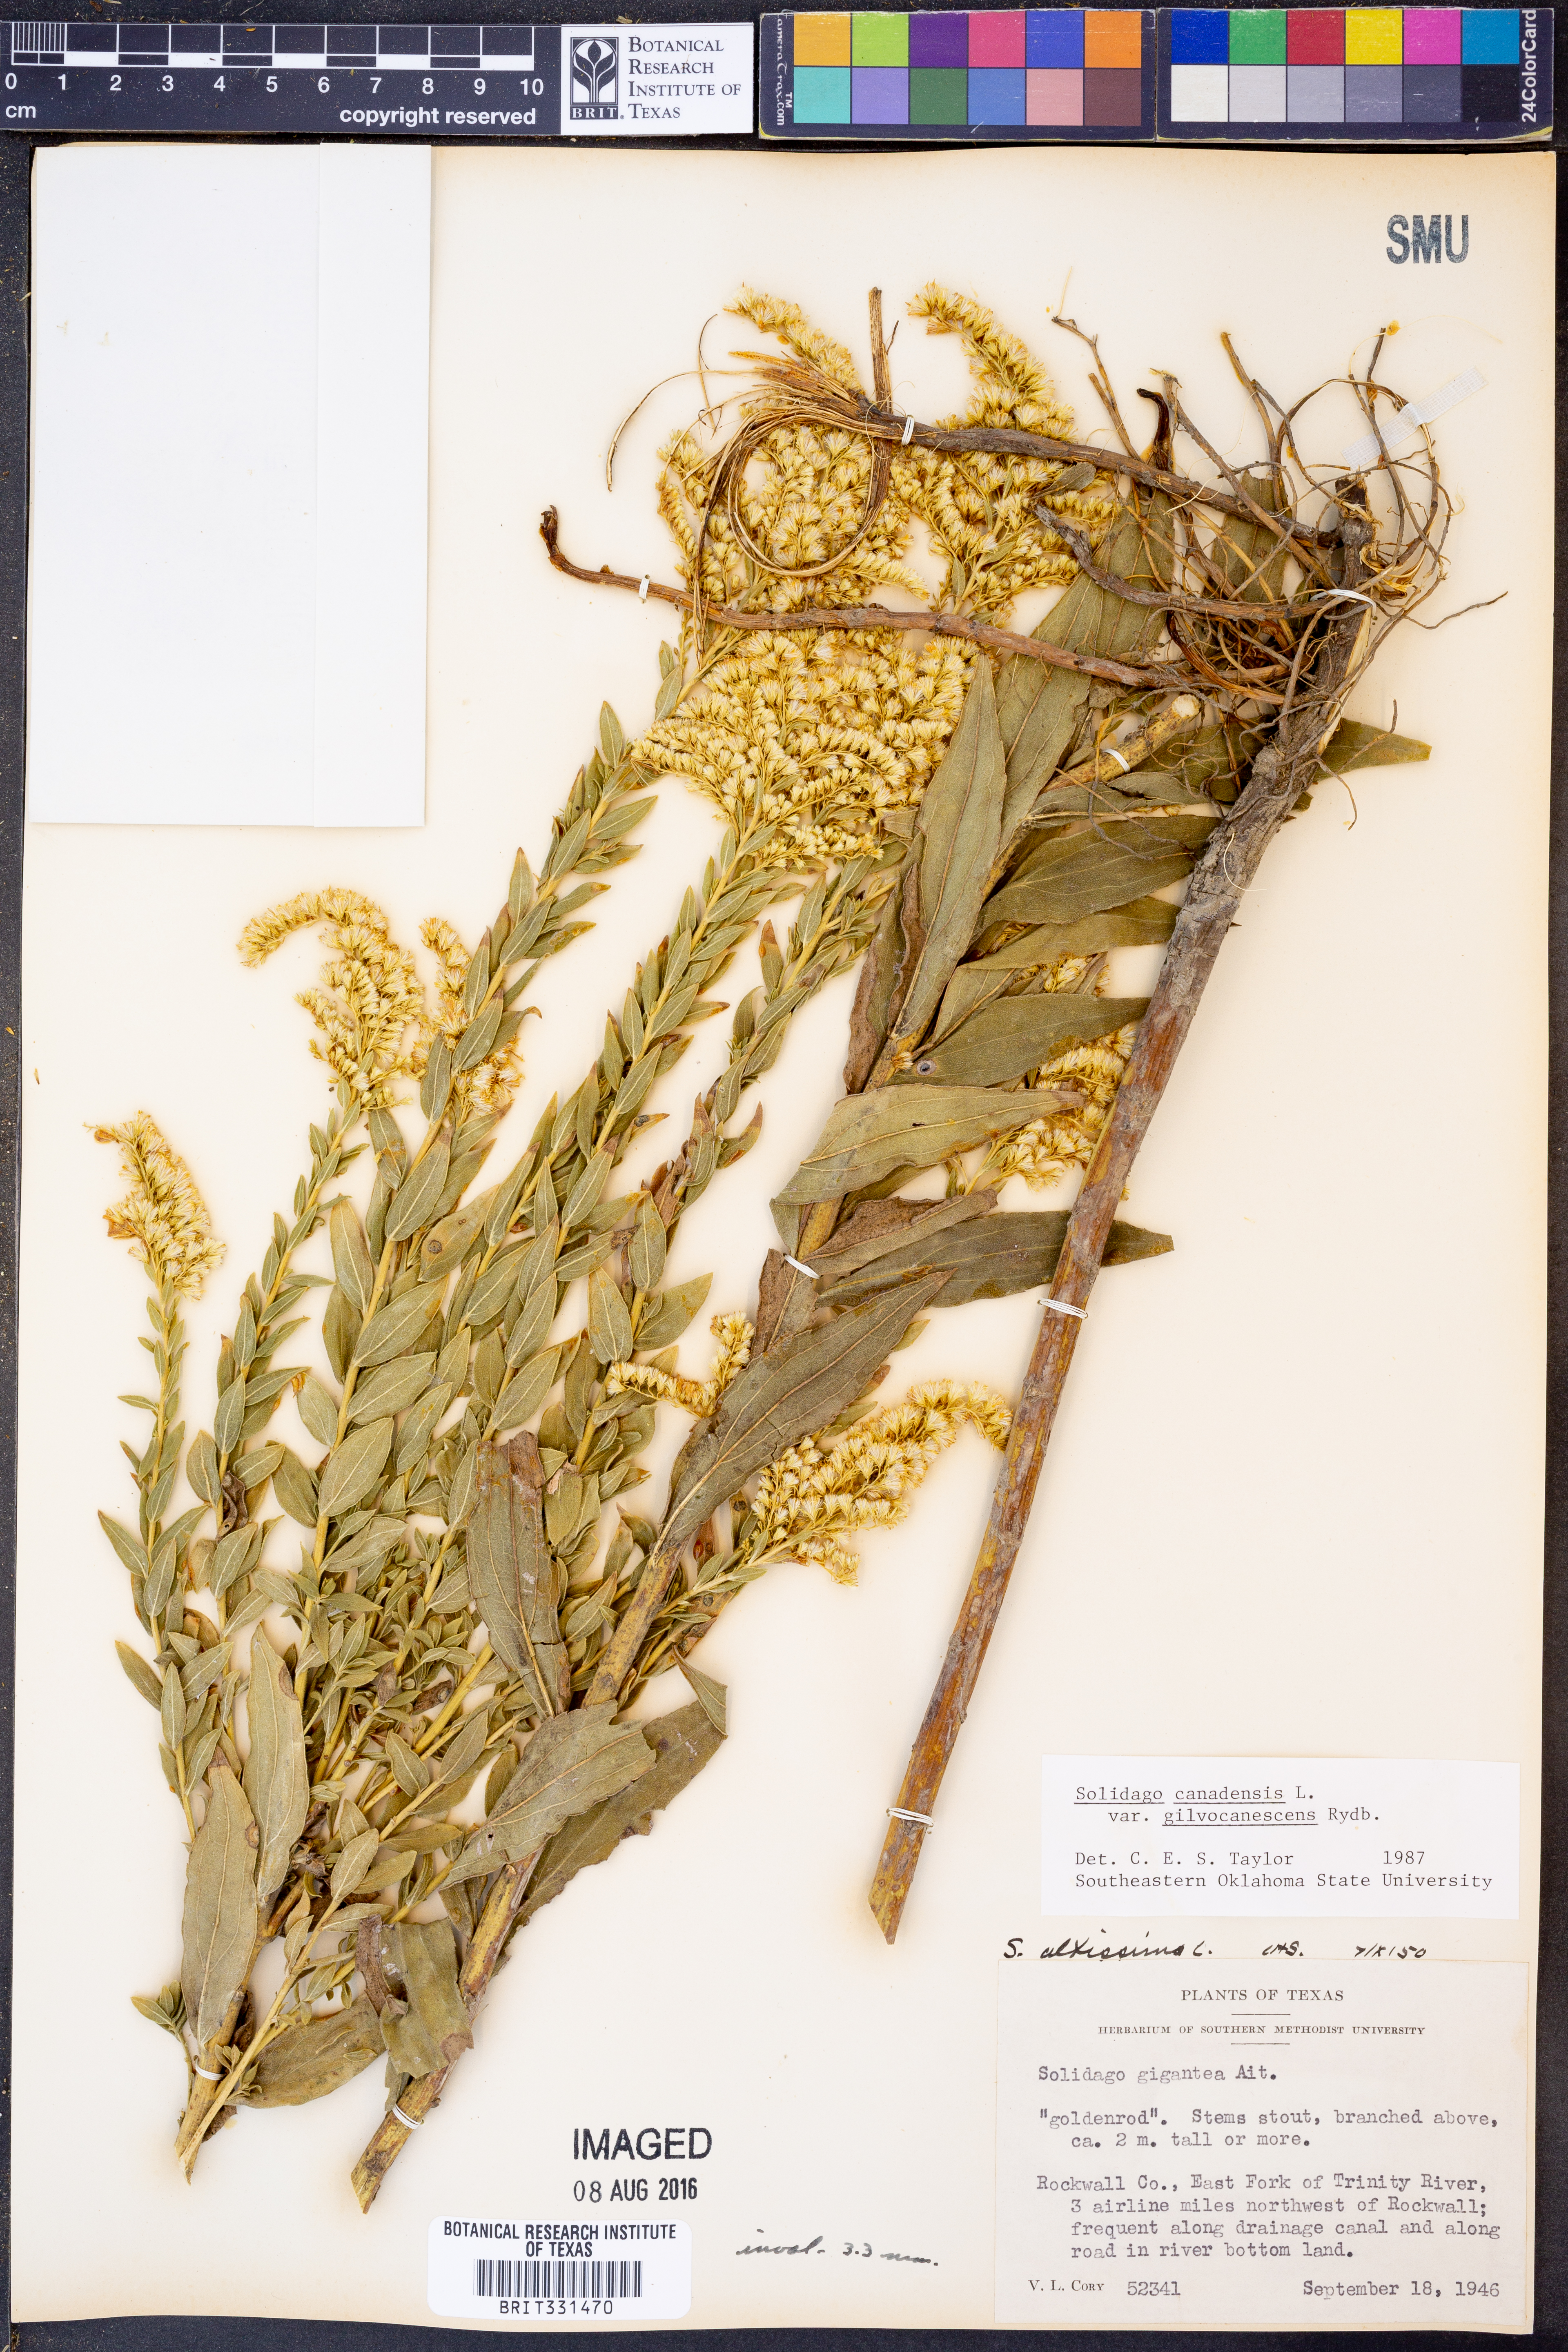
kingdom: Plantae
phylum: Tracheophyta
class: Magnoliopsida
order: Asterales
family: Asteraceae
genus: Solidago
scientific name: Solidago altissima
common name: Late goldenrod
